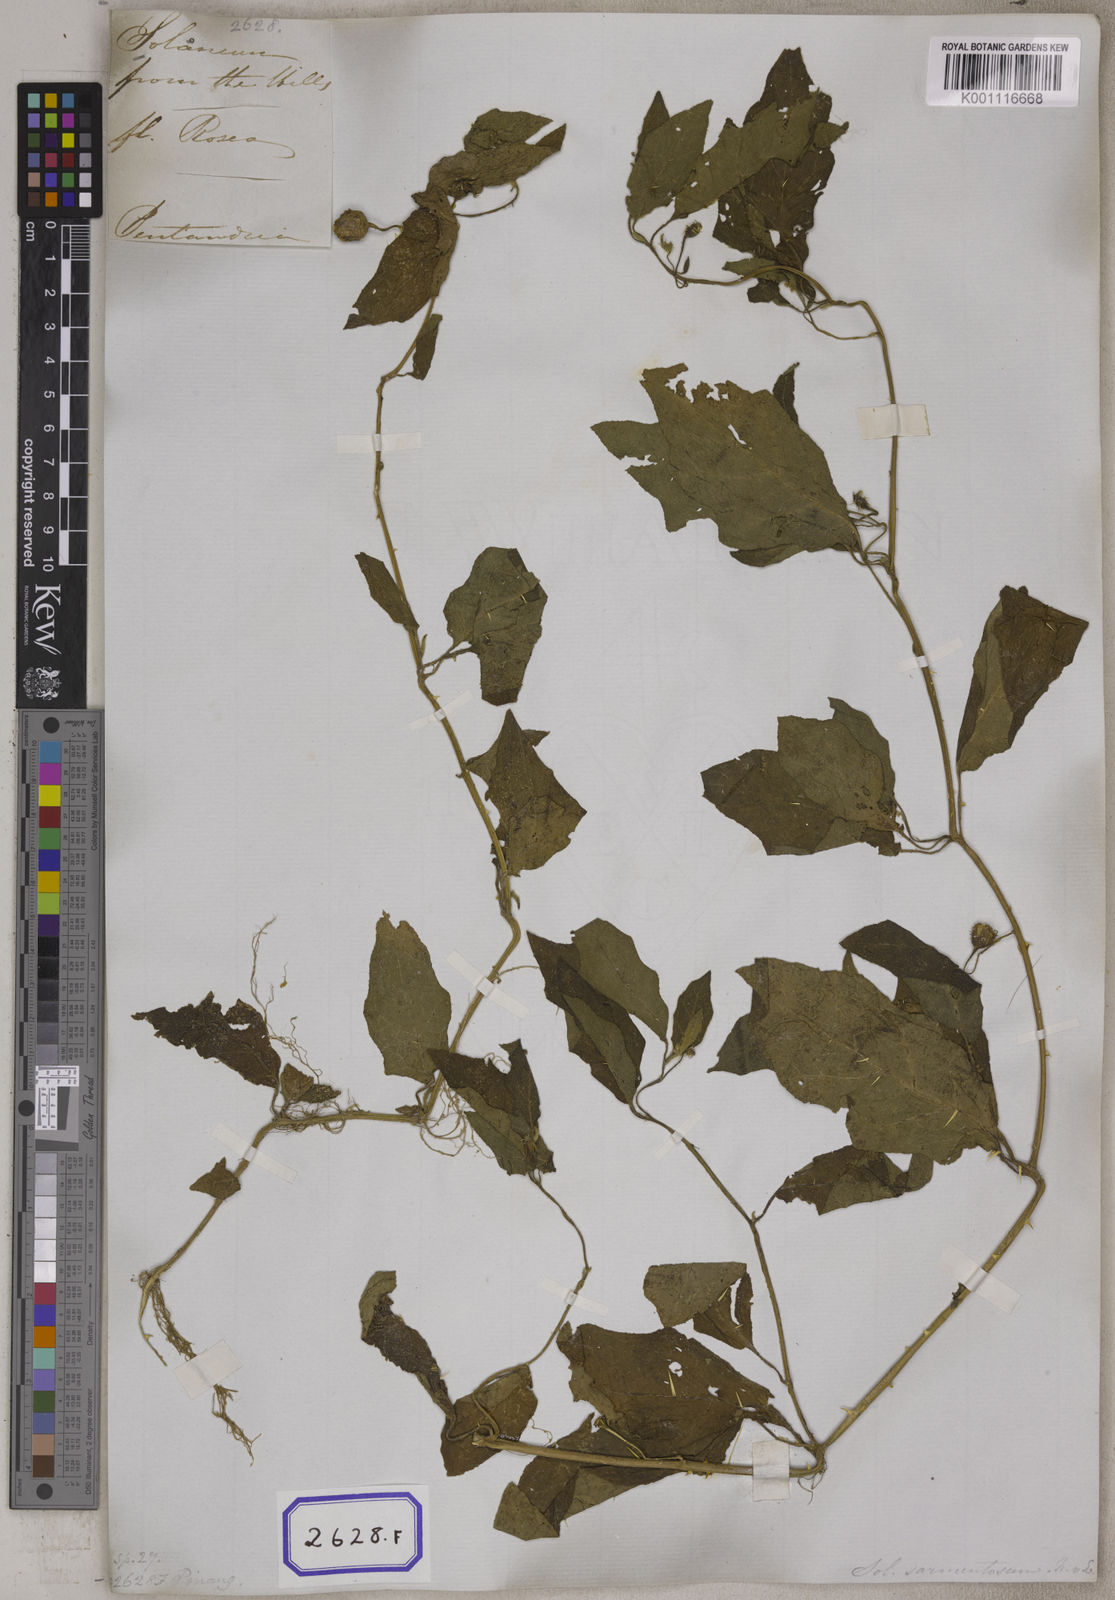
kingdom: Plantae
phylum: Tracheophyta
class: Magnoliopsida
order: Solanales
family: Solanaceae
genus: Solanum
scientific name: Solanum melongena
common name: Eggplant
